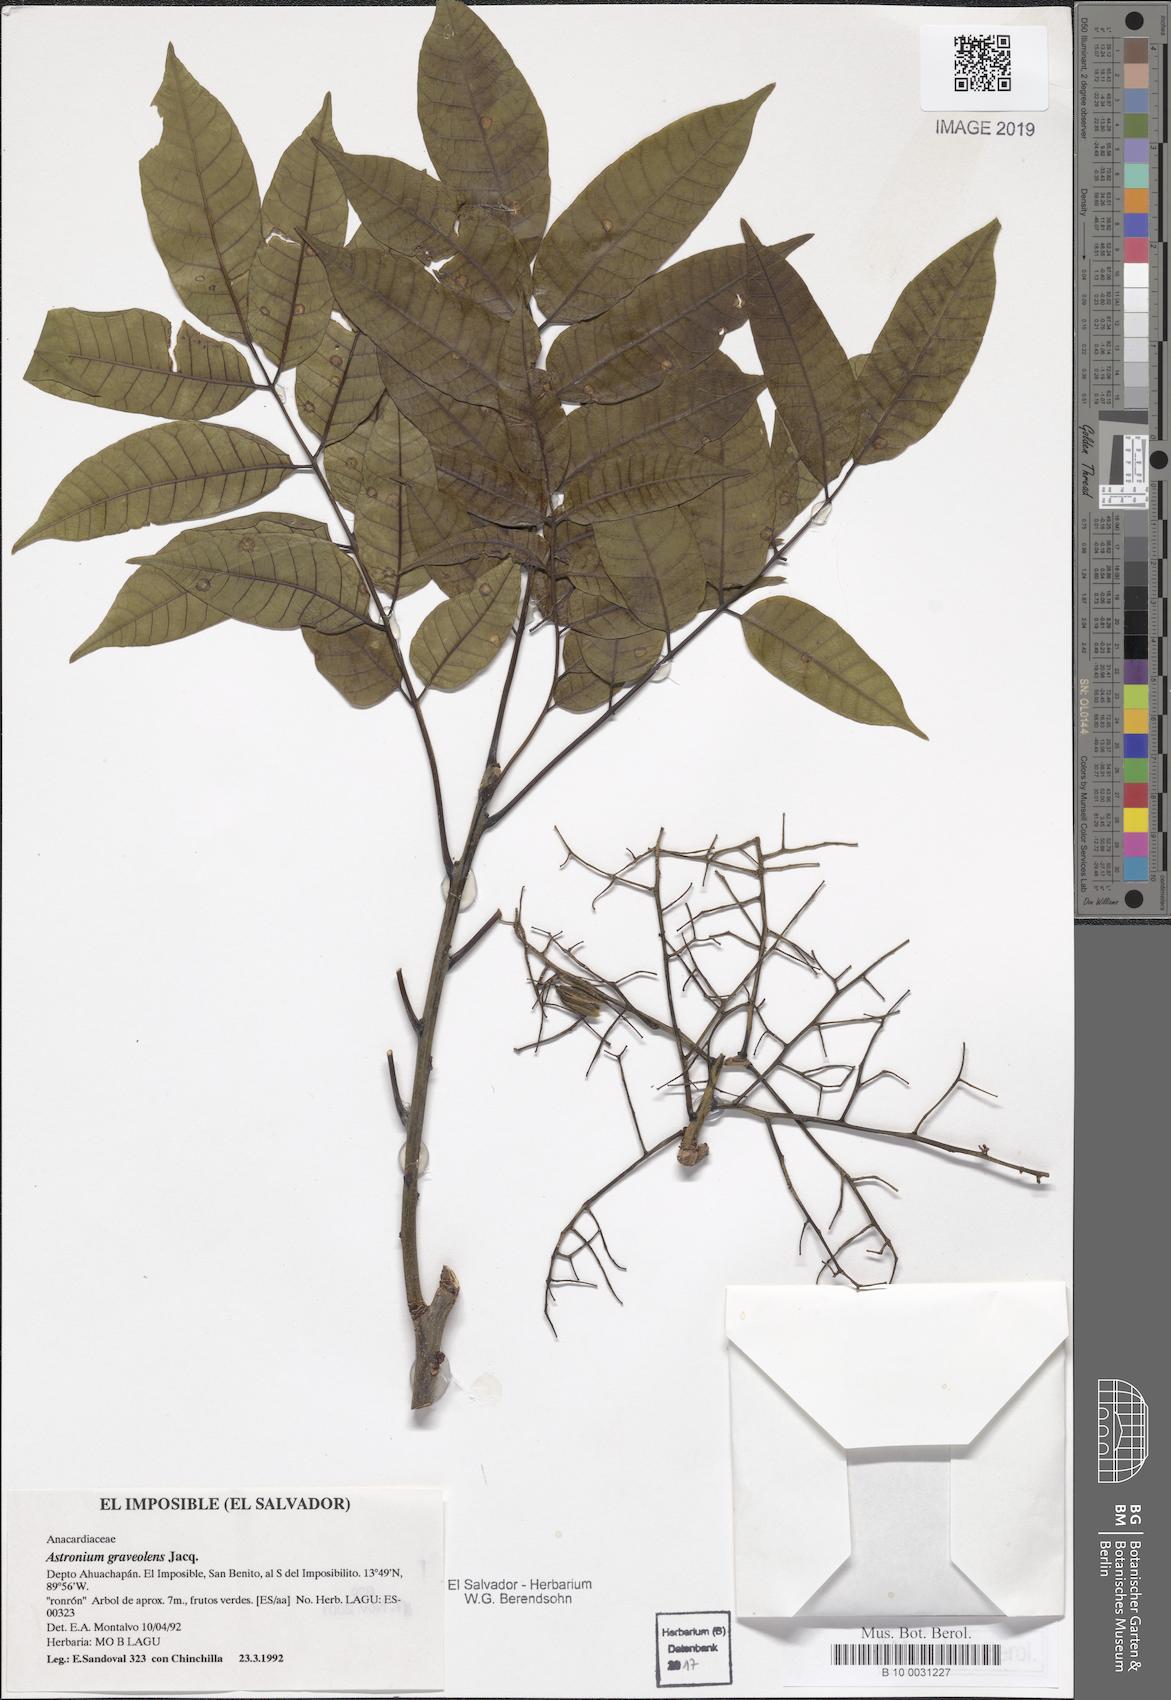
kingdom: Plantae
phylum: Tracheophyta
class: Magnoliopsida
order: Sapindales
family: Anacardiaceae
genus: Astronium
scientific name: Astronium graveolens
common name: Glassywood
